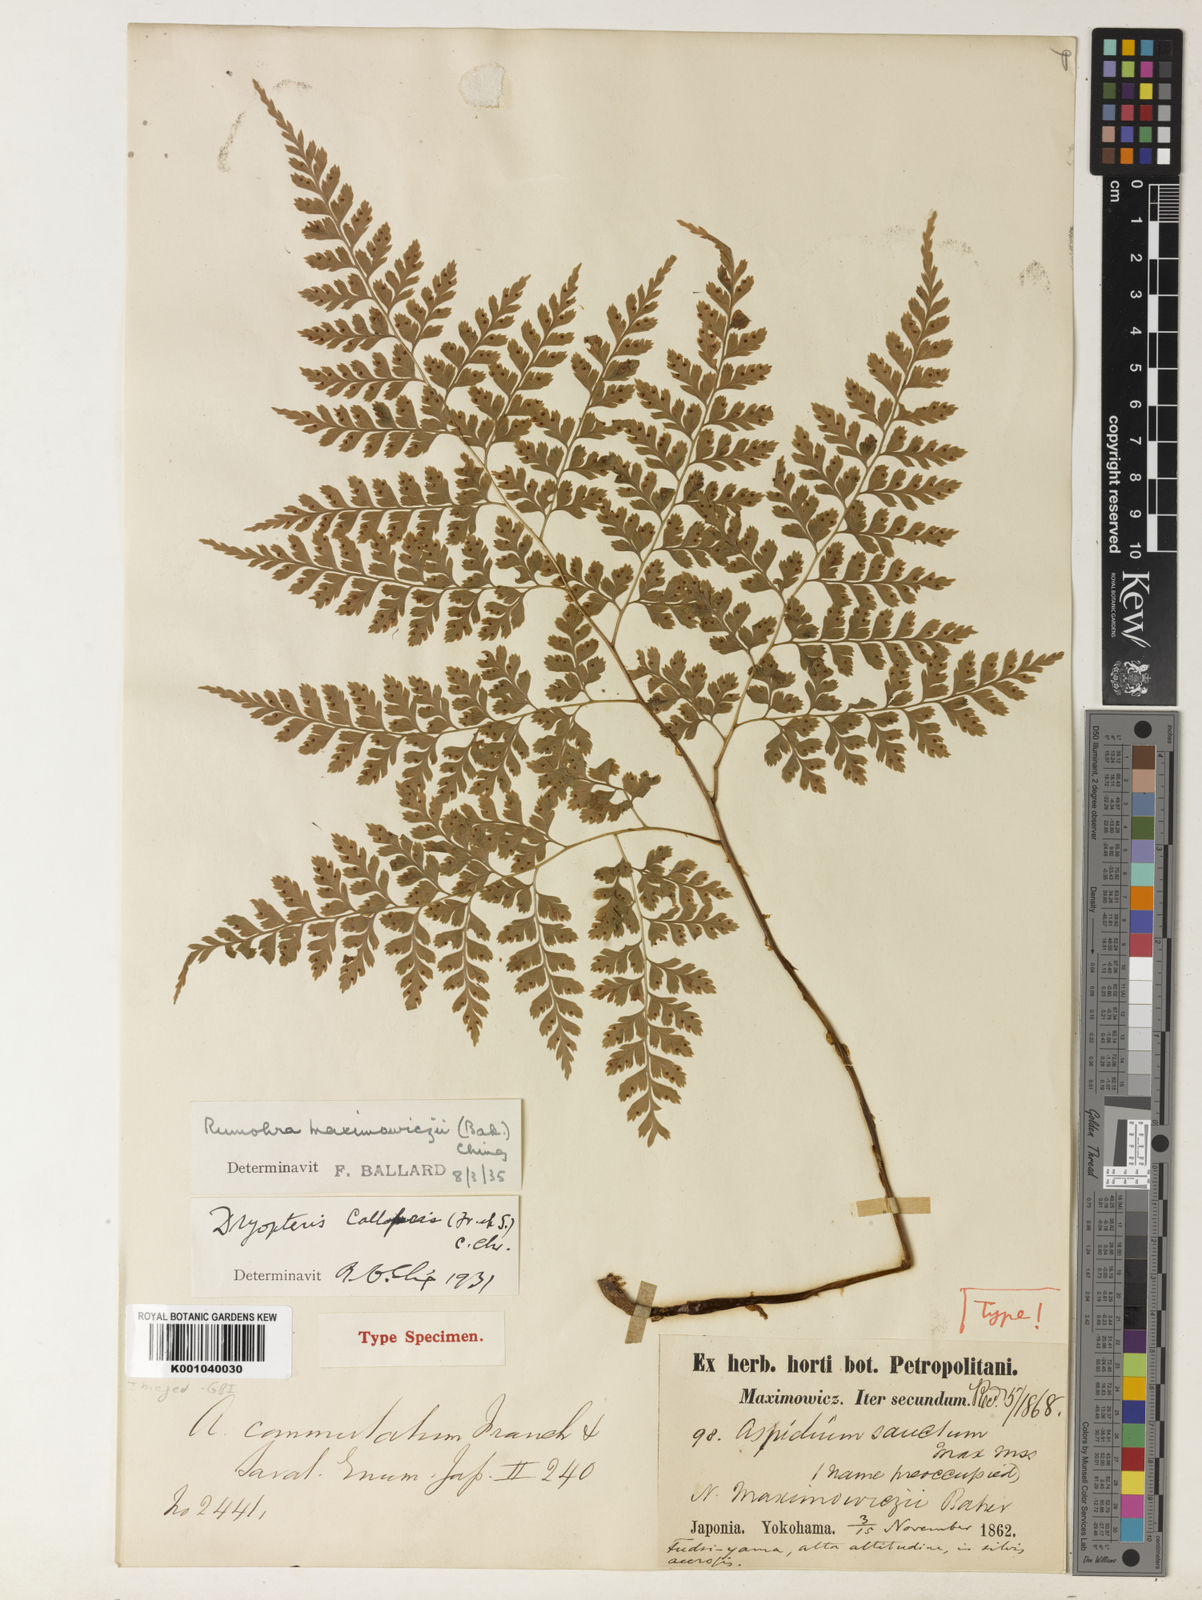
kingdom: Plantae
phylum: Tracheophyta
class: Polypodiopsida
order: Polypodiales
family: Dryopteridaceae
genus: Dryopteris
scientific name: Dryopteris maximowiczii
